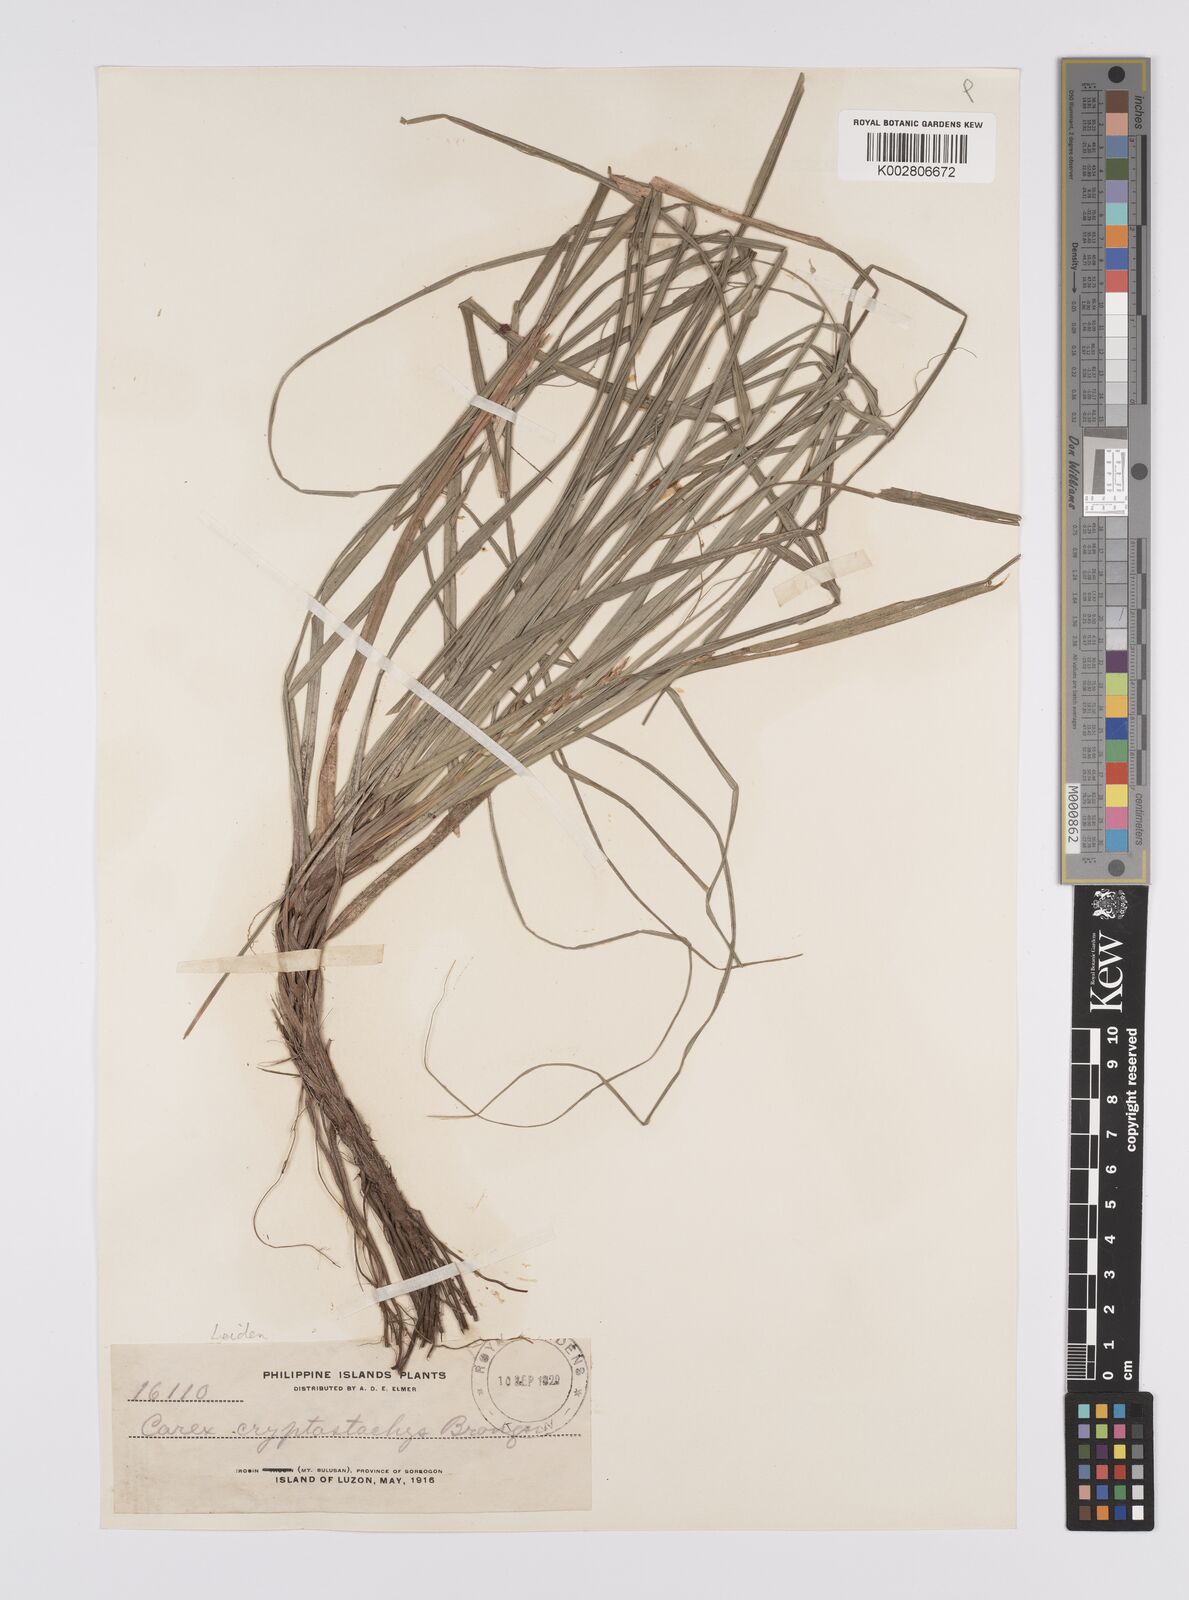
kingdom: Plantae
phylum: Tracheophyta
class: Liliopsida
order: Poales
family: Cyperaceae
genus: Carex
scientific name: Carex cryptostachys
